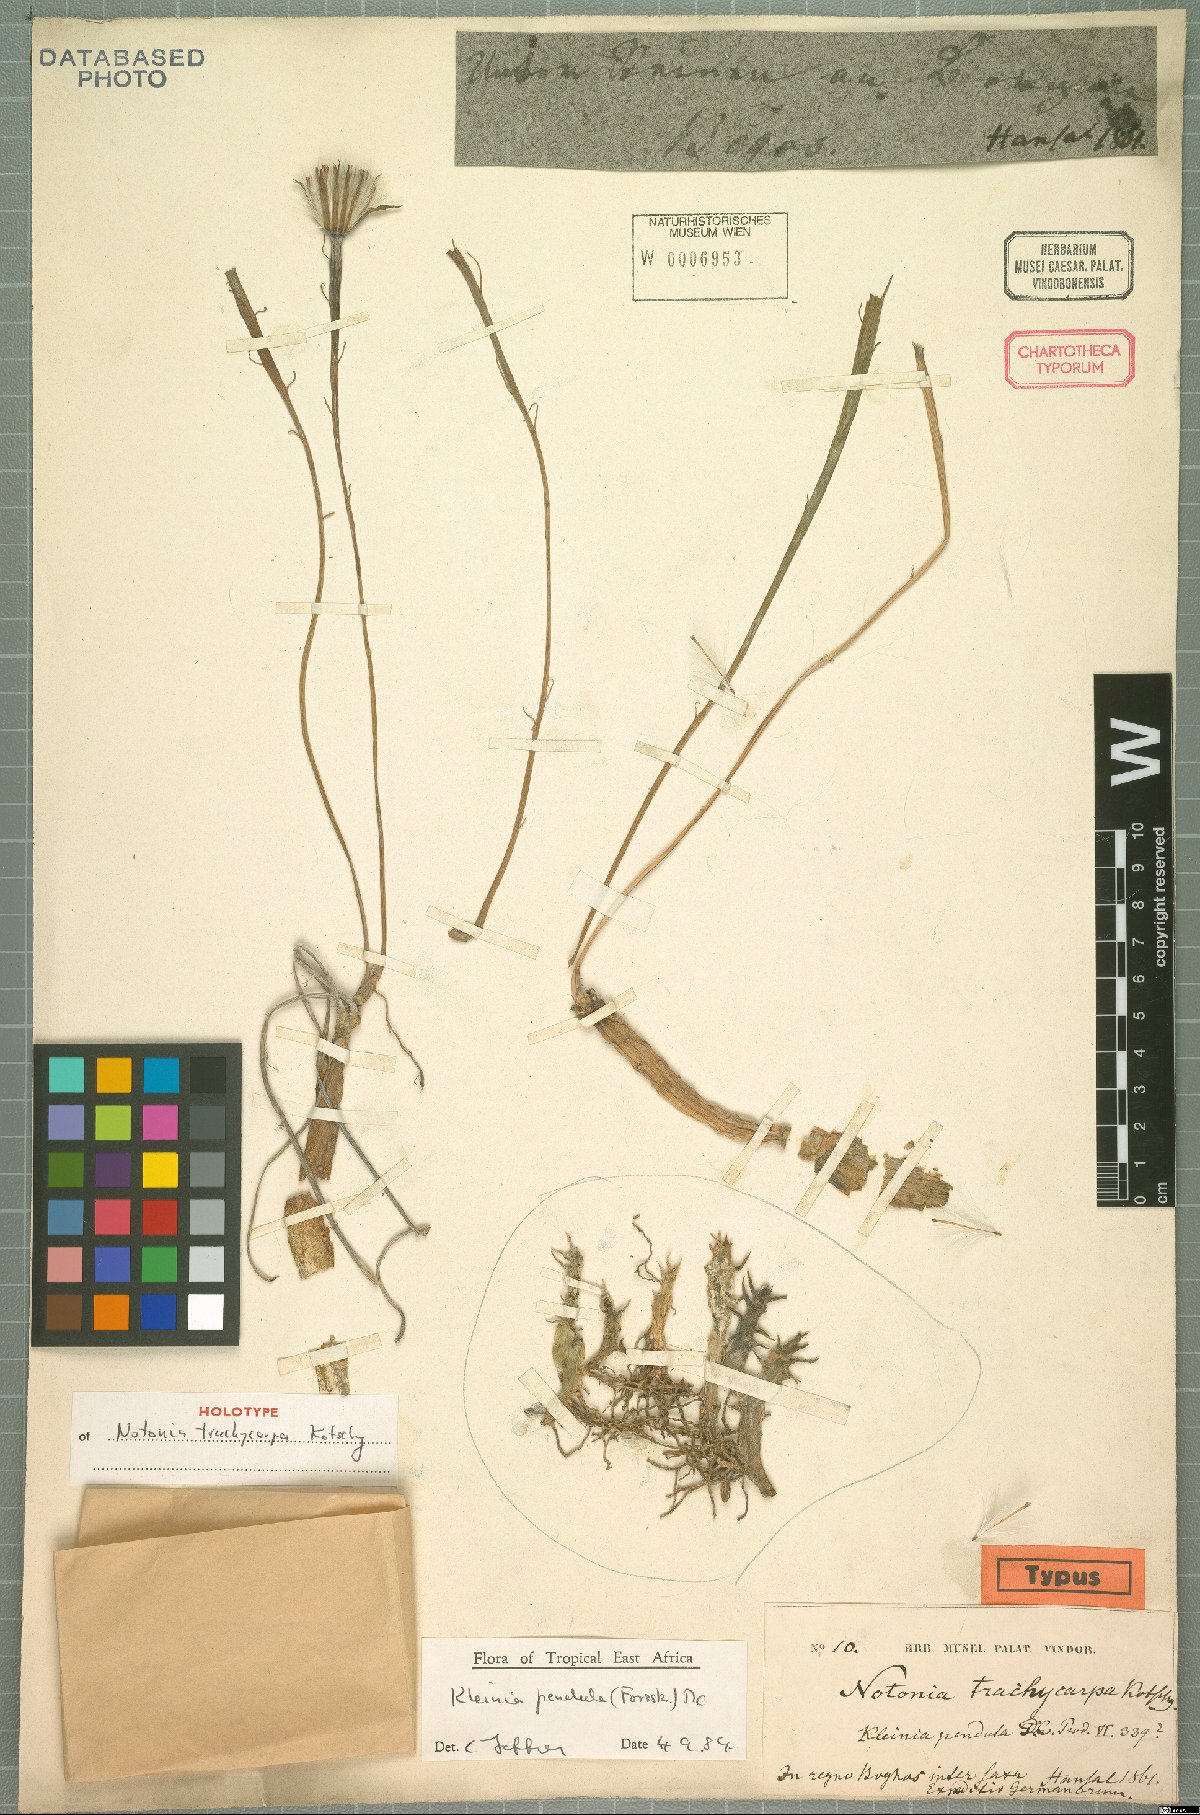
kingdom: Plantae
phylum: Tracheophyta
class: Magnoliopsida
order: Asterales
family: Asteraceae
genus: Kleinia
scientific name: Kleinia pendula
